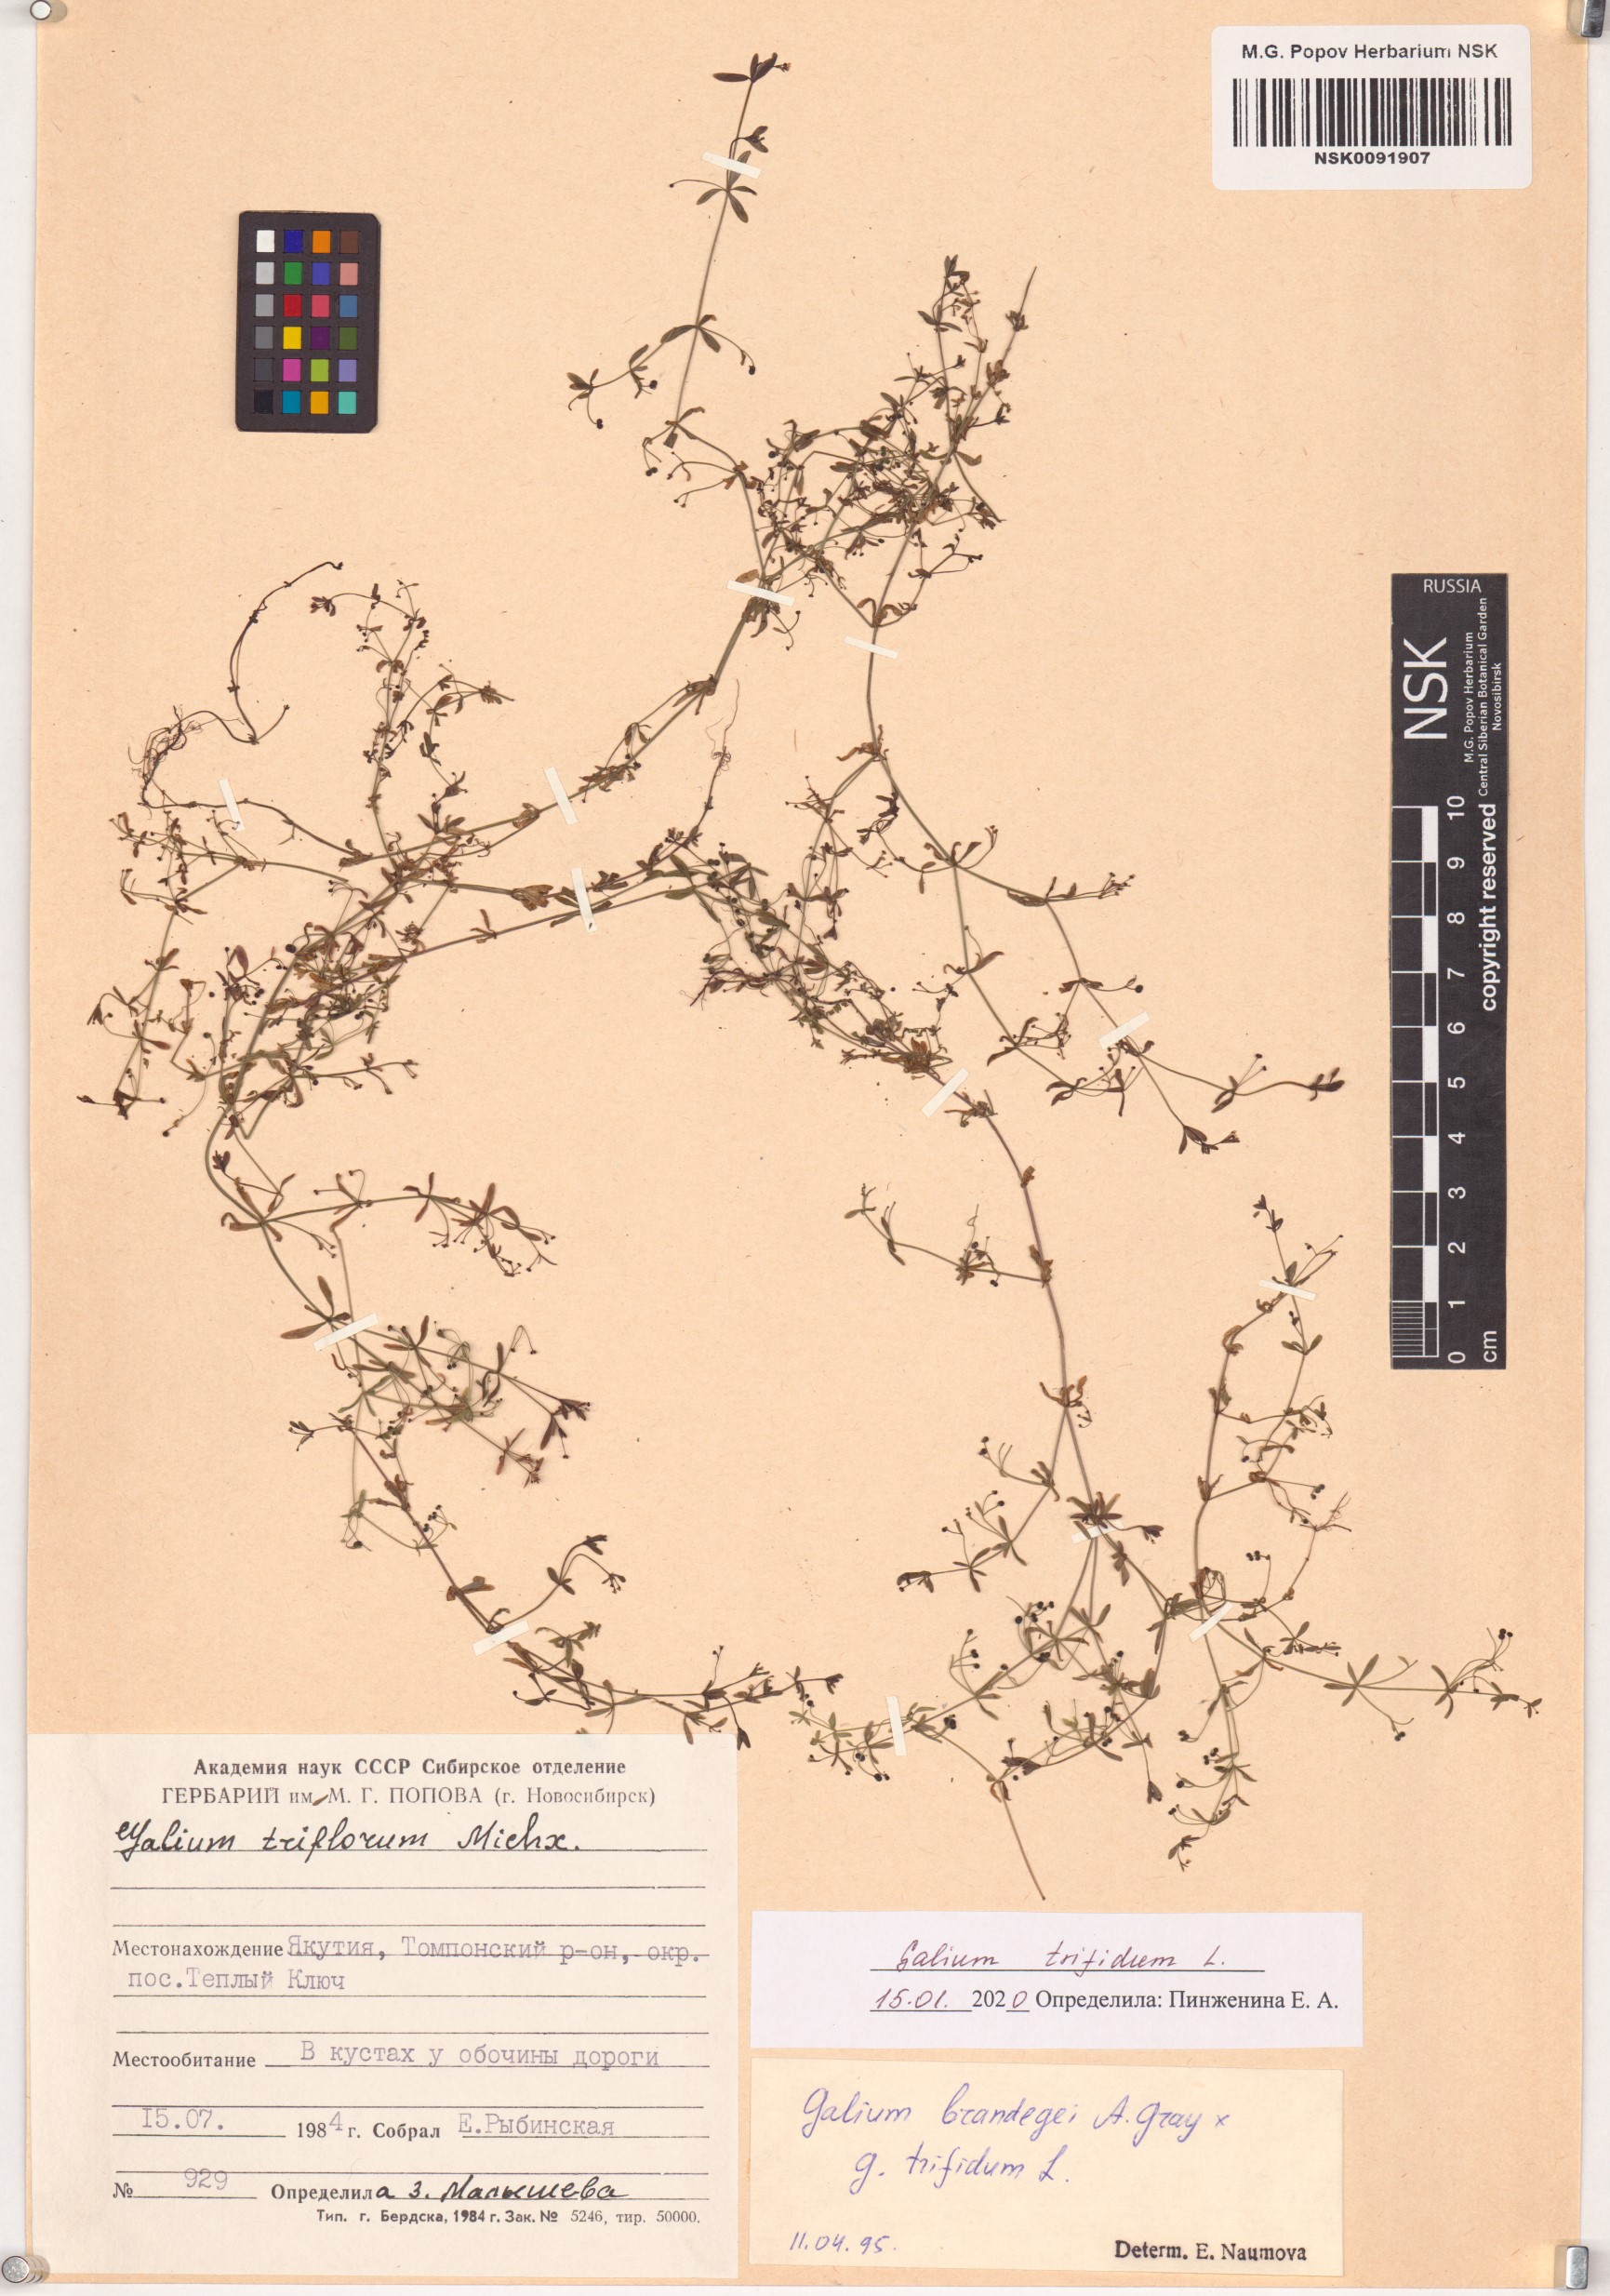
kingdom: Plantae
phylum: Tracheophyta
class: Magnoliopsida
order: Gentianales
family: Rubiaceae
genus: Galium
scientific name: Galium trifidum
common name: Small bedstraw
